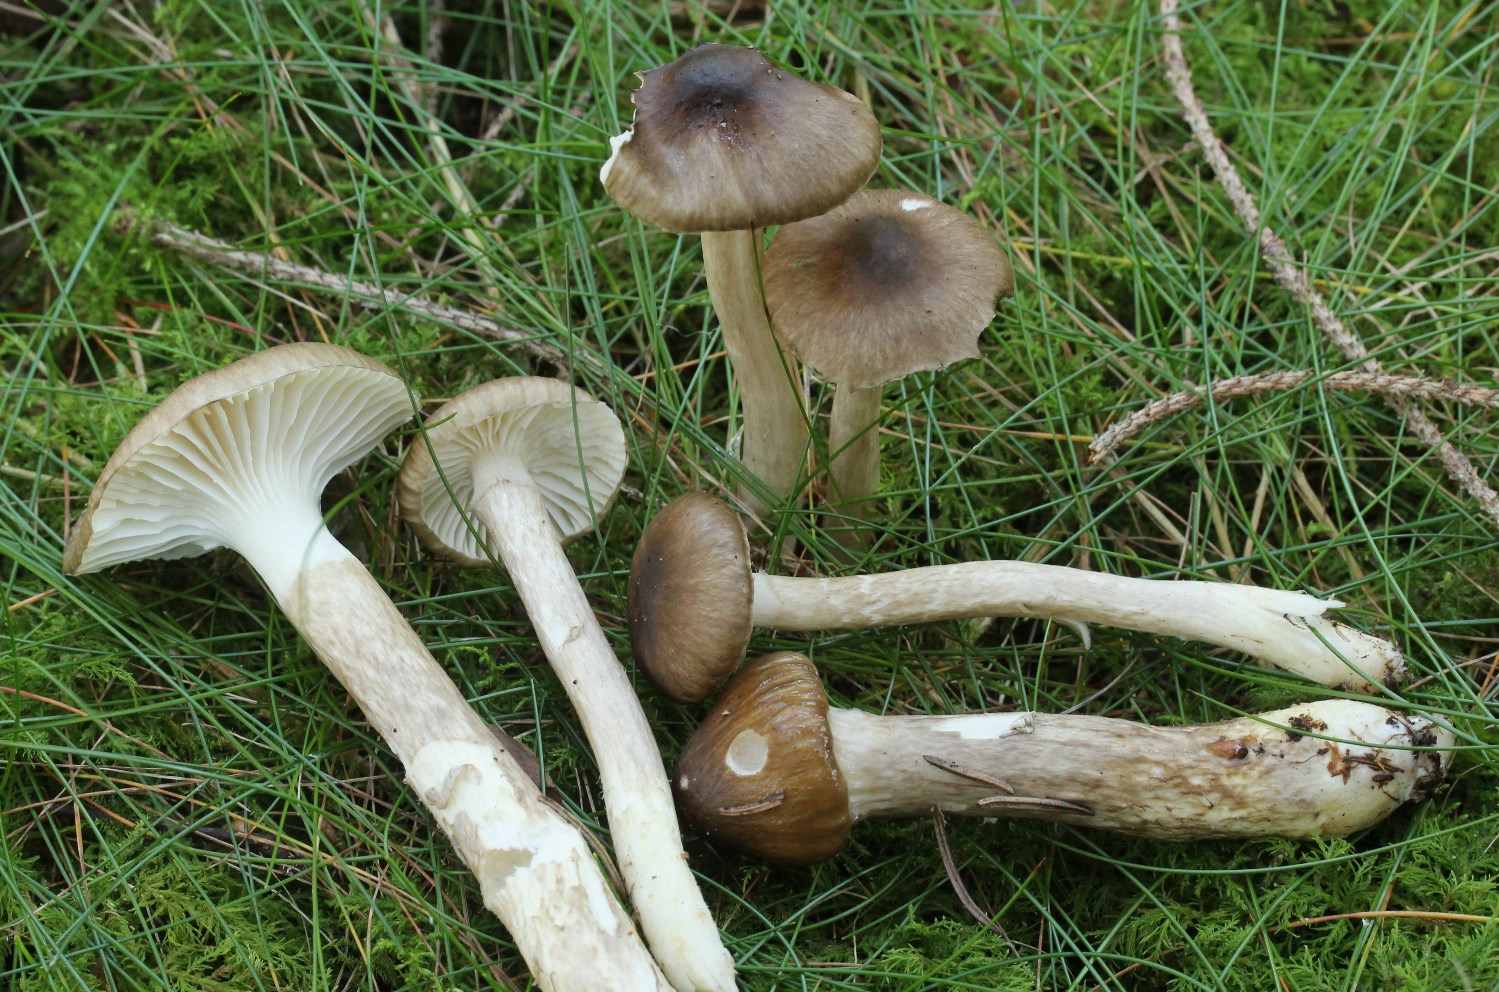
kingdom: Fungi
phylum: Basidiomycota
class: Agaricomycetes
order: Agaricales
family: Hygrophoraceae
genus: Hygrophorus
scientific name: Hygrophorus olivaceoalbus
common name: hvidbrun sneglehat
